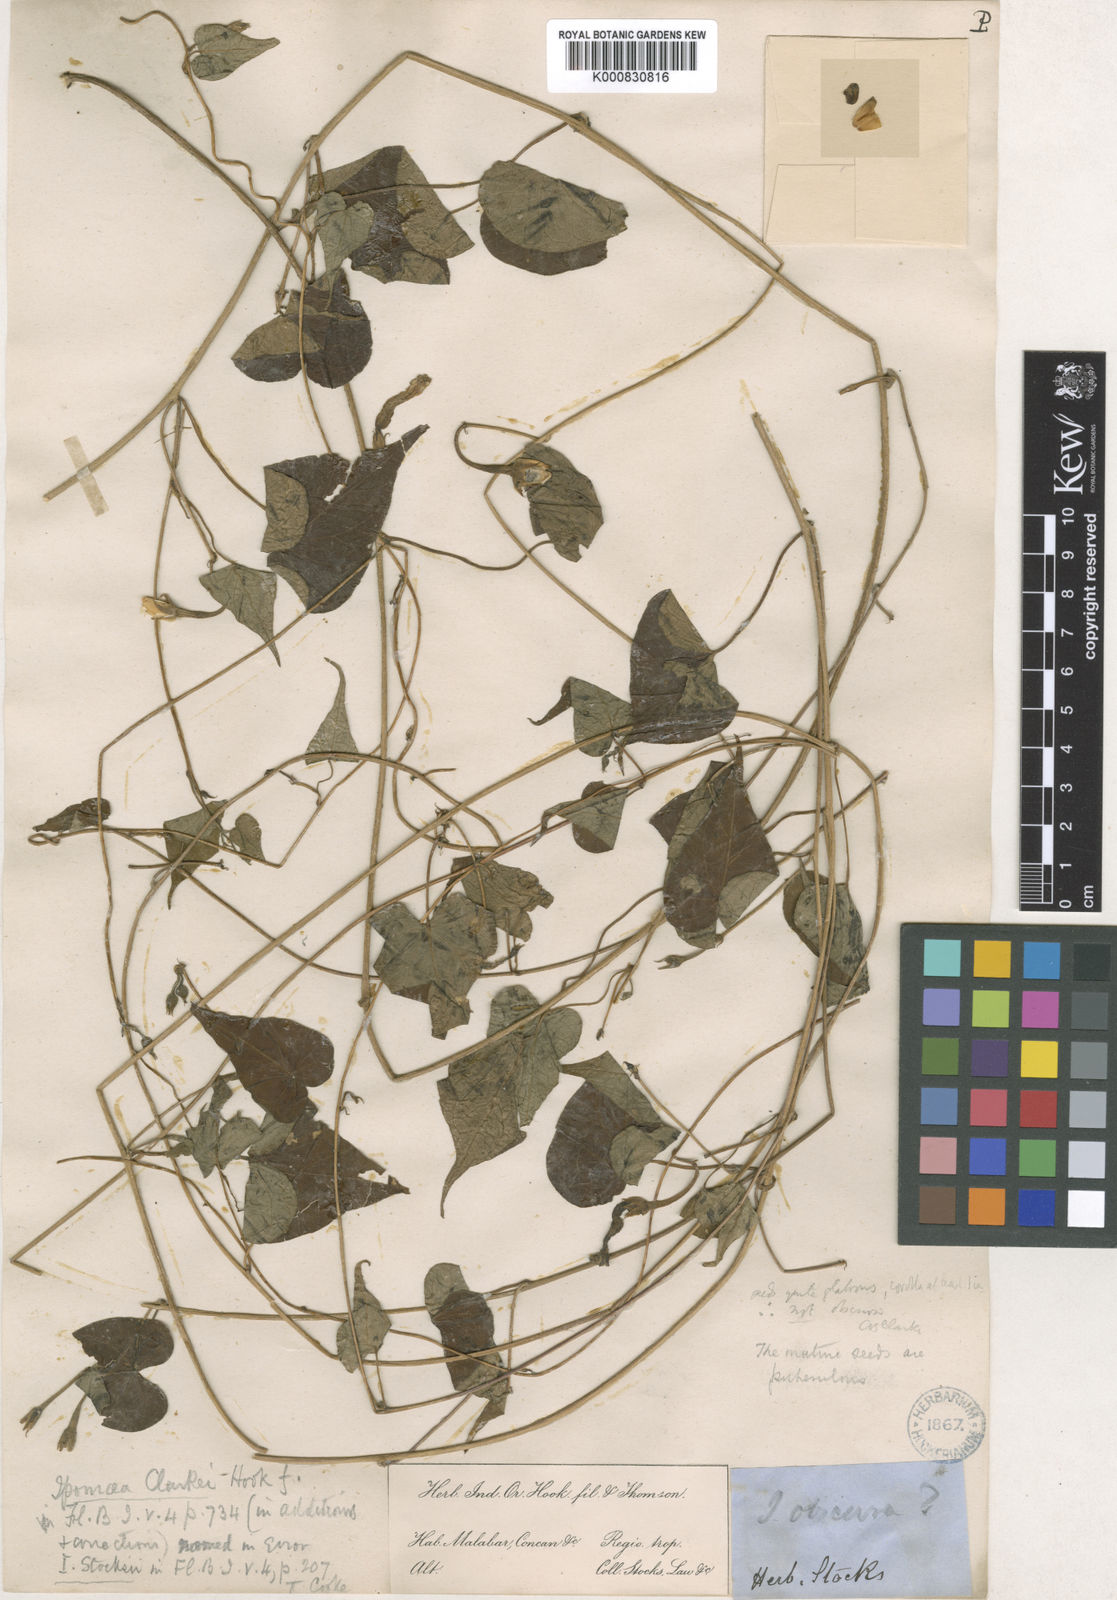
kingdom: Plantae
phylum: Tracheophyta
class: Magnoliopsida
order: Solanales
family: Convolvulaceae
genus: Ipomoea
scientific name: Ipomoea clarkei
